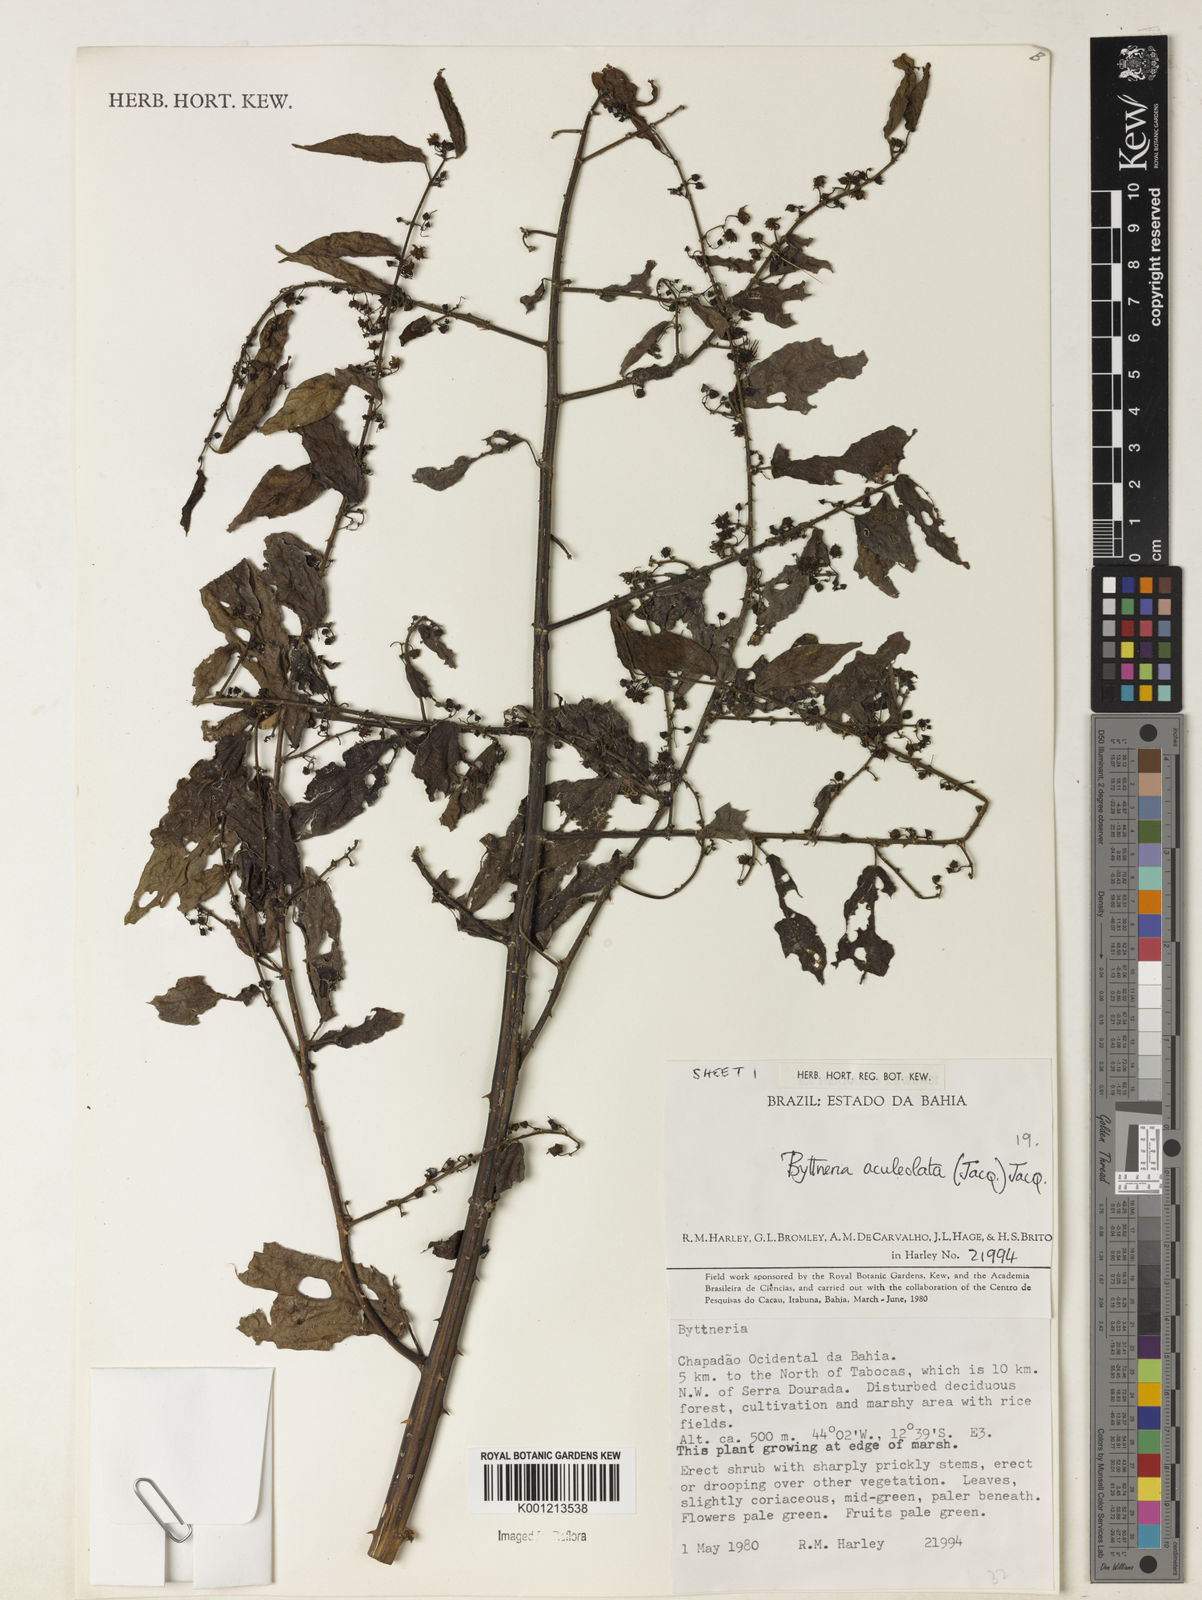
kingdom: Plantae
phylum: Tracheophyta
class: Magnoliopsida
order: Malvales
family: Malvaceae
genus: Byttneria
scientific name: Byttneria aculeata
